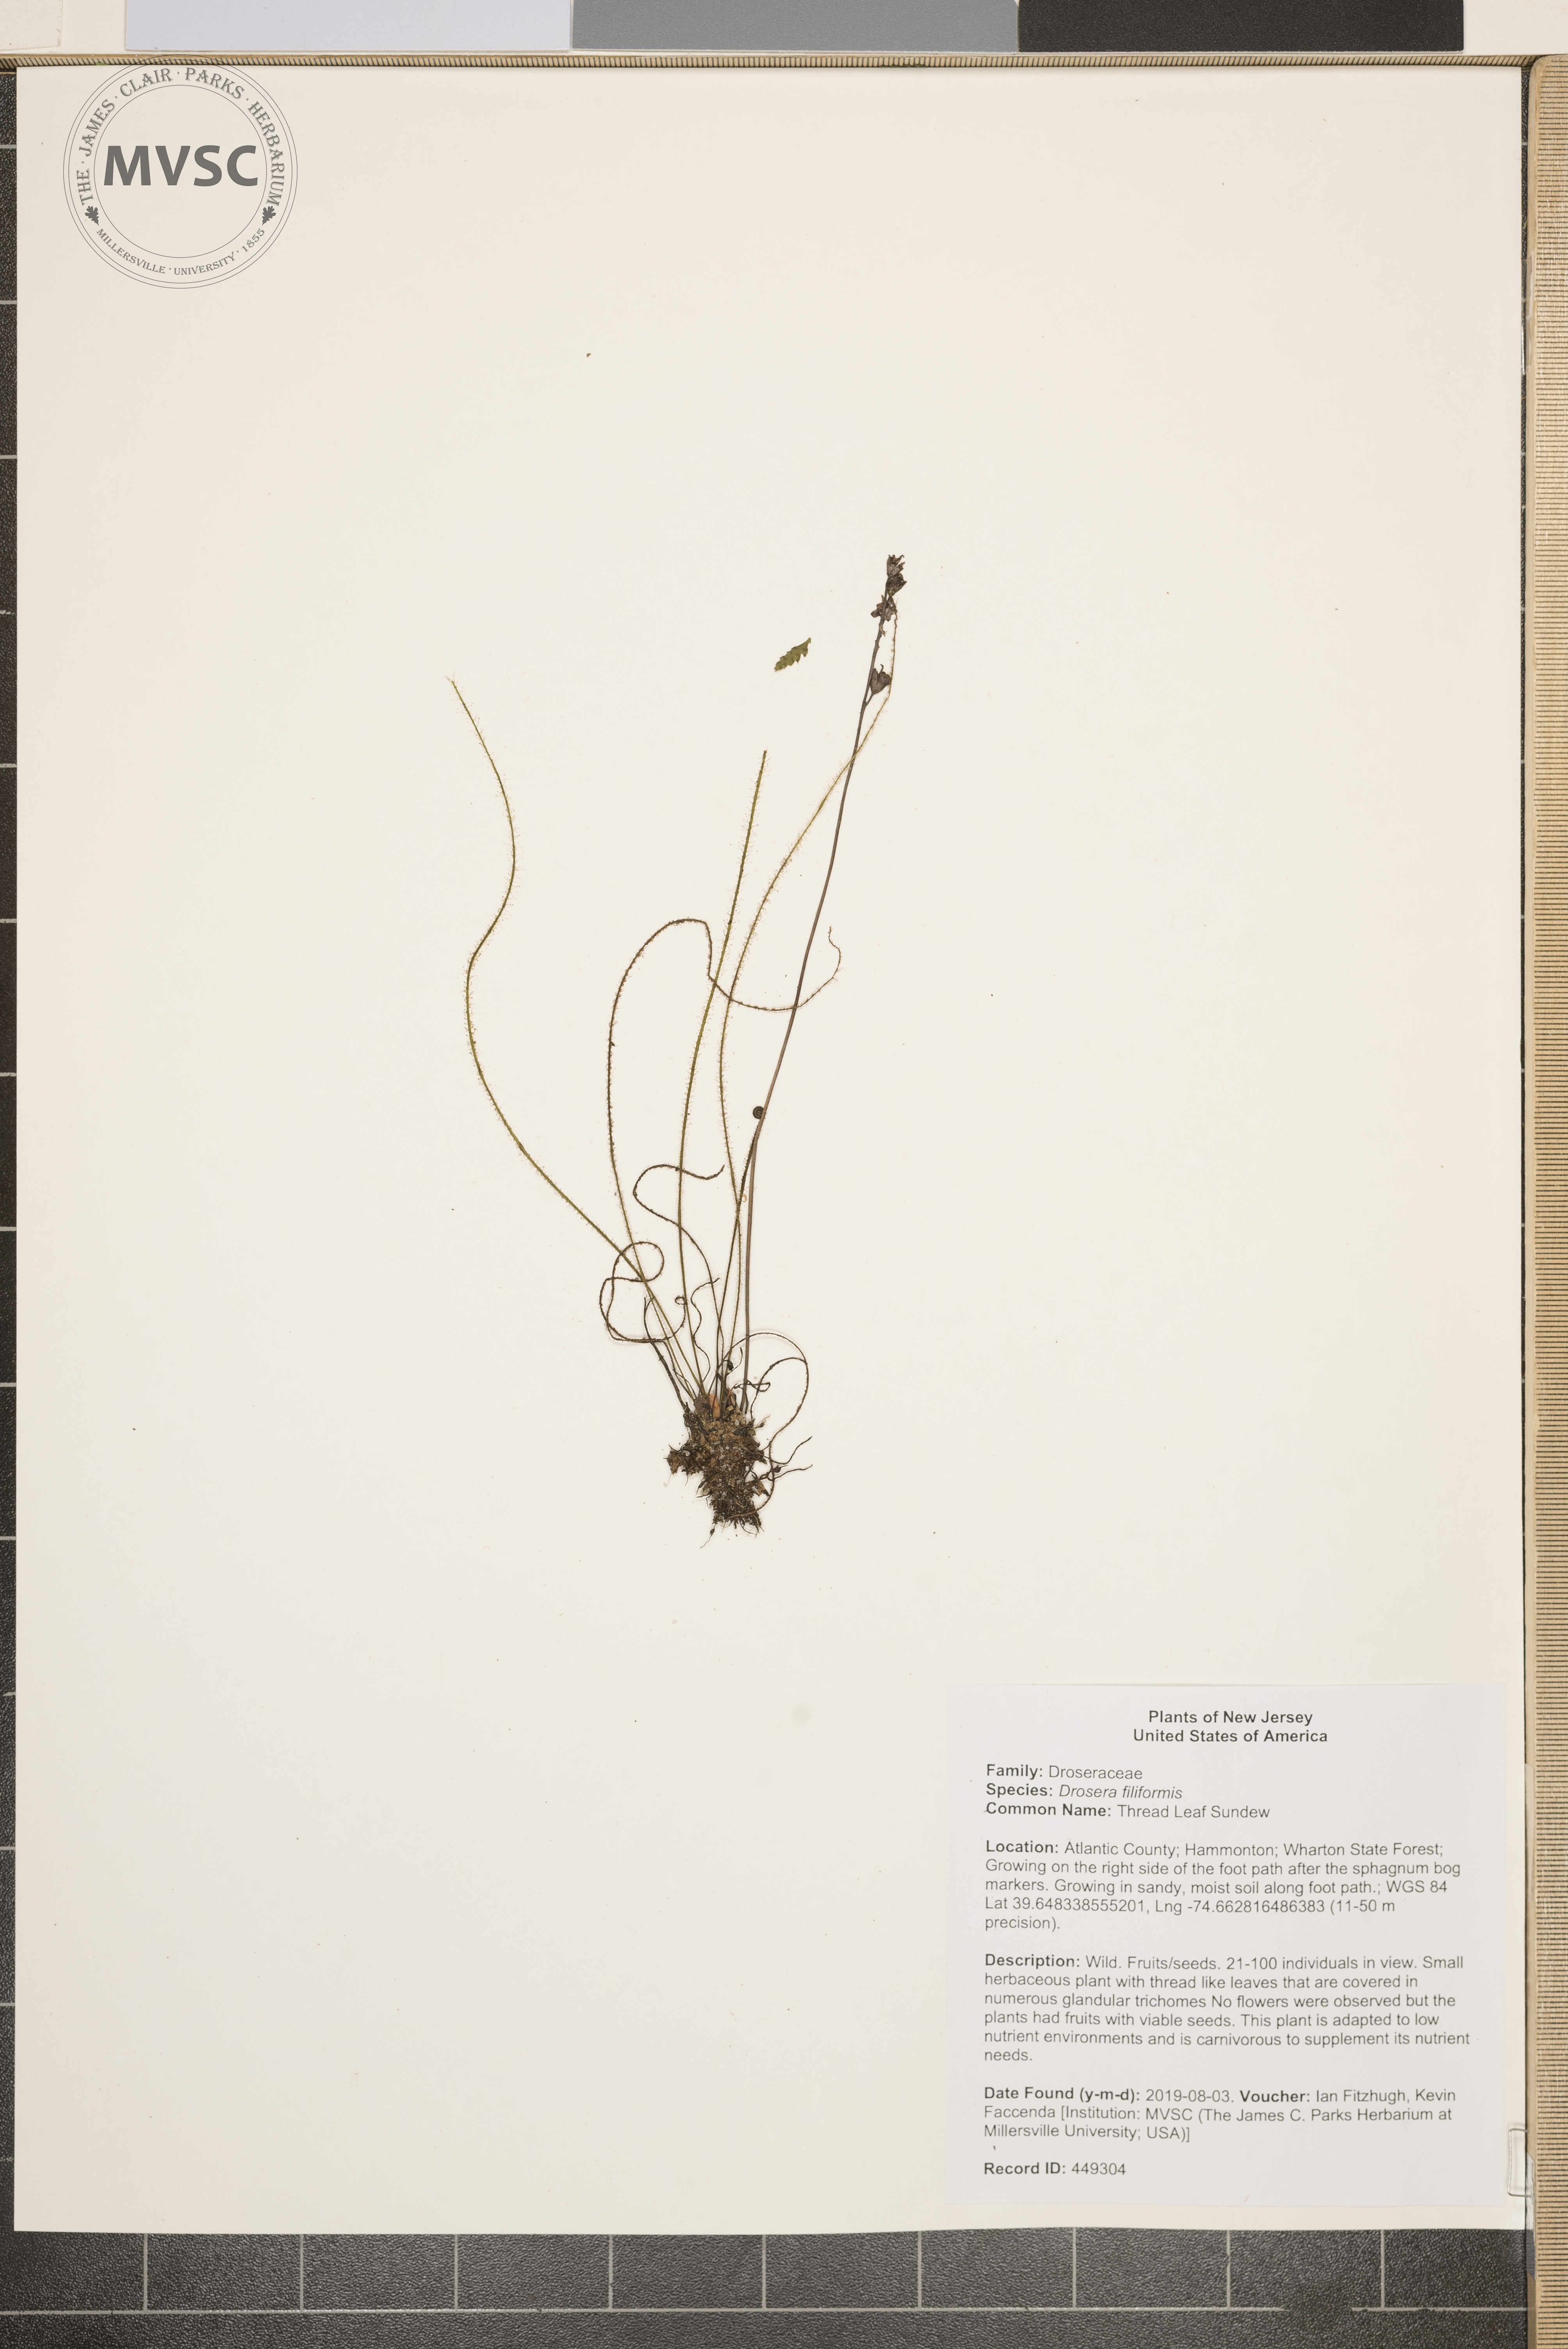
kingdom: Plantae
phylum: Tracheophyta
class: Magnoliopsida
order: Caryophyllales
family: Droseraceae
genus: Drosera
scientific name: Drosera filiformis
